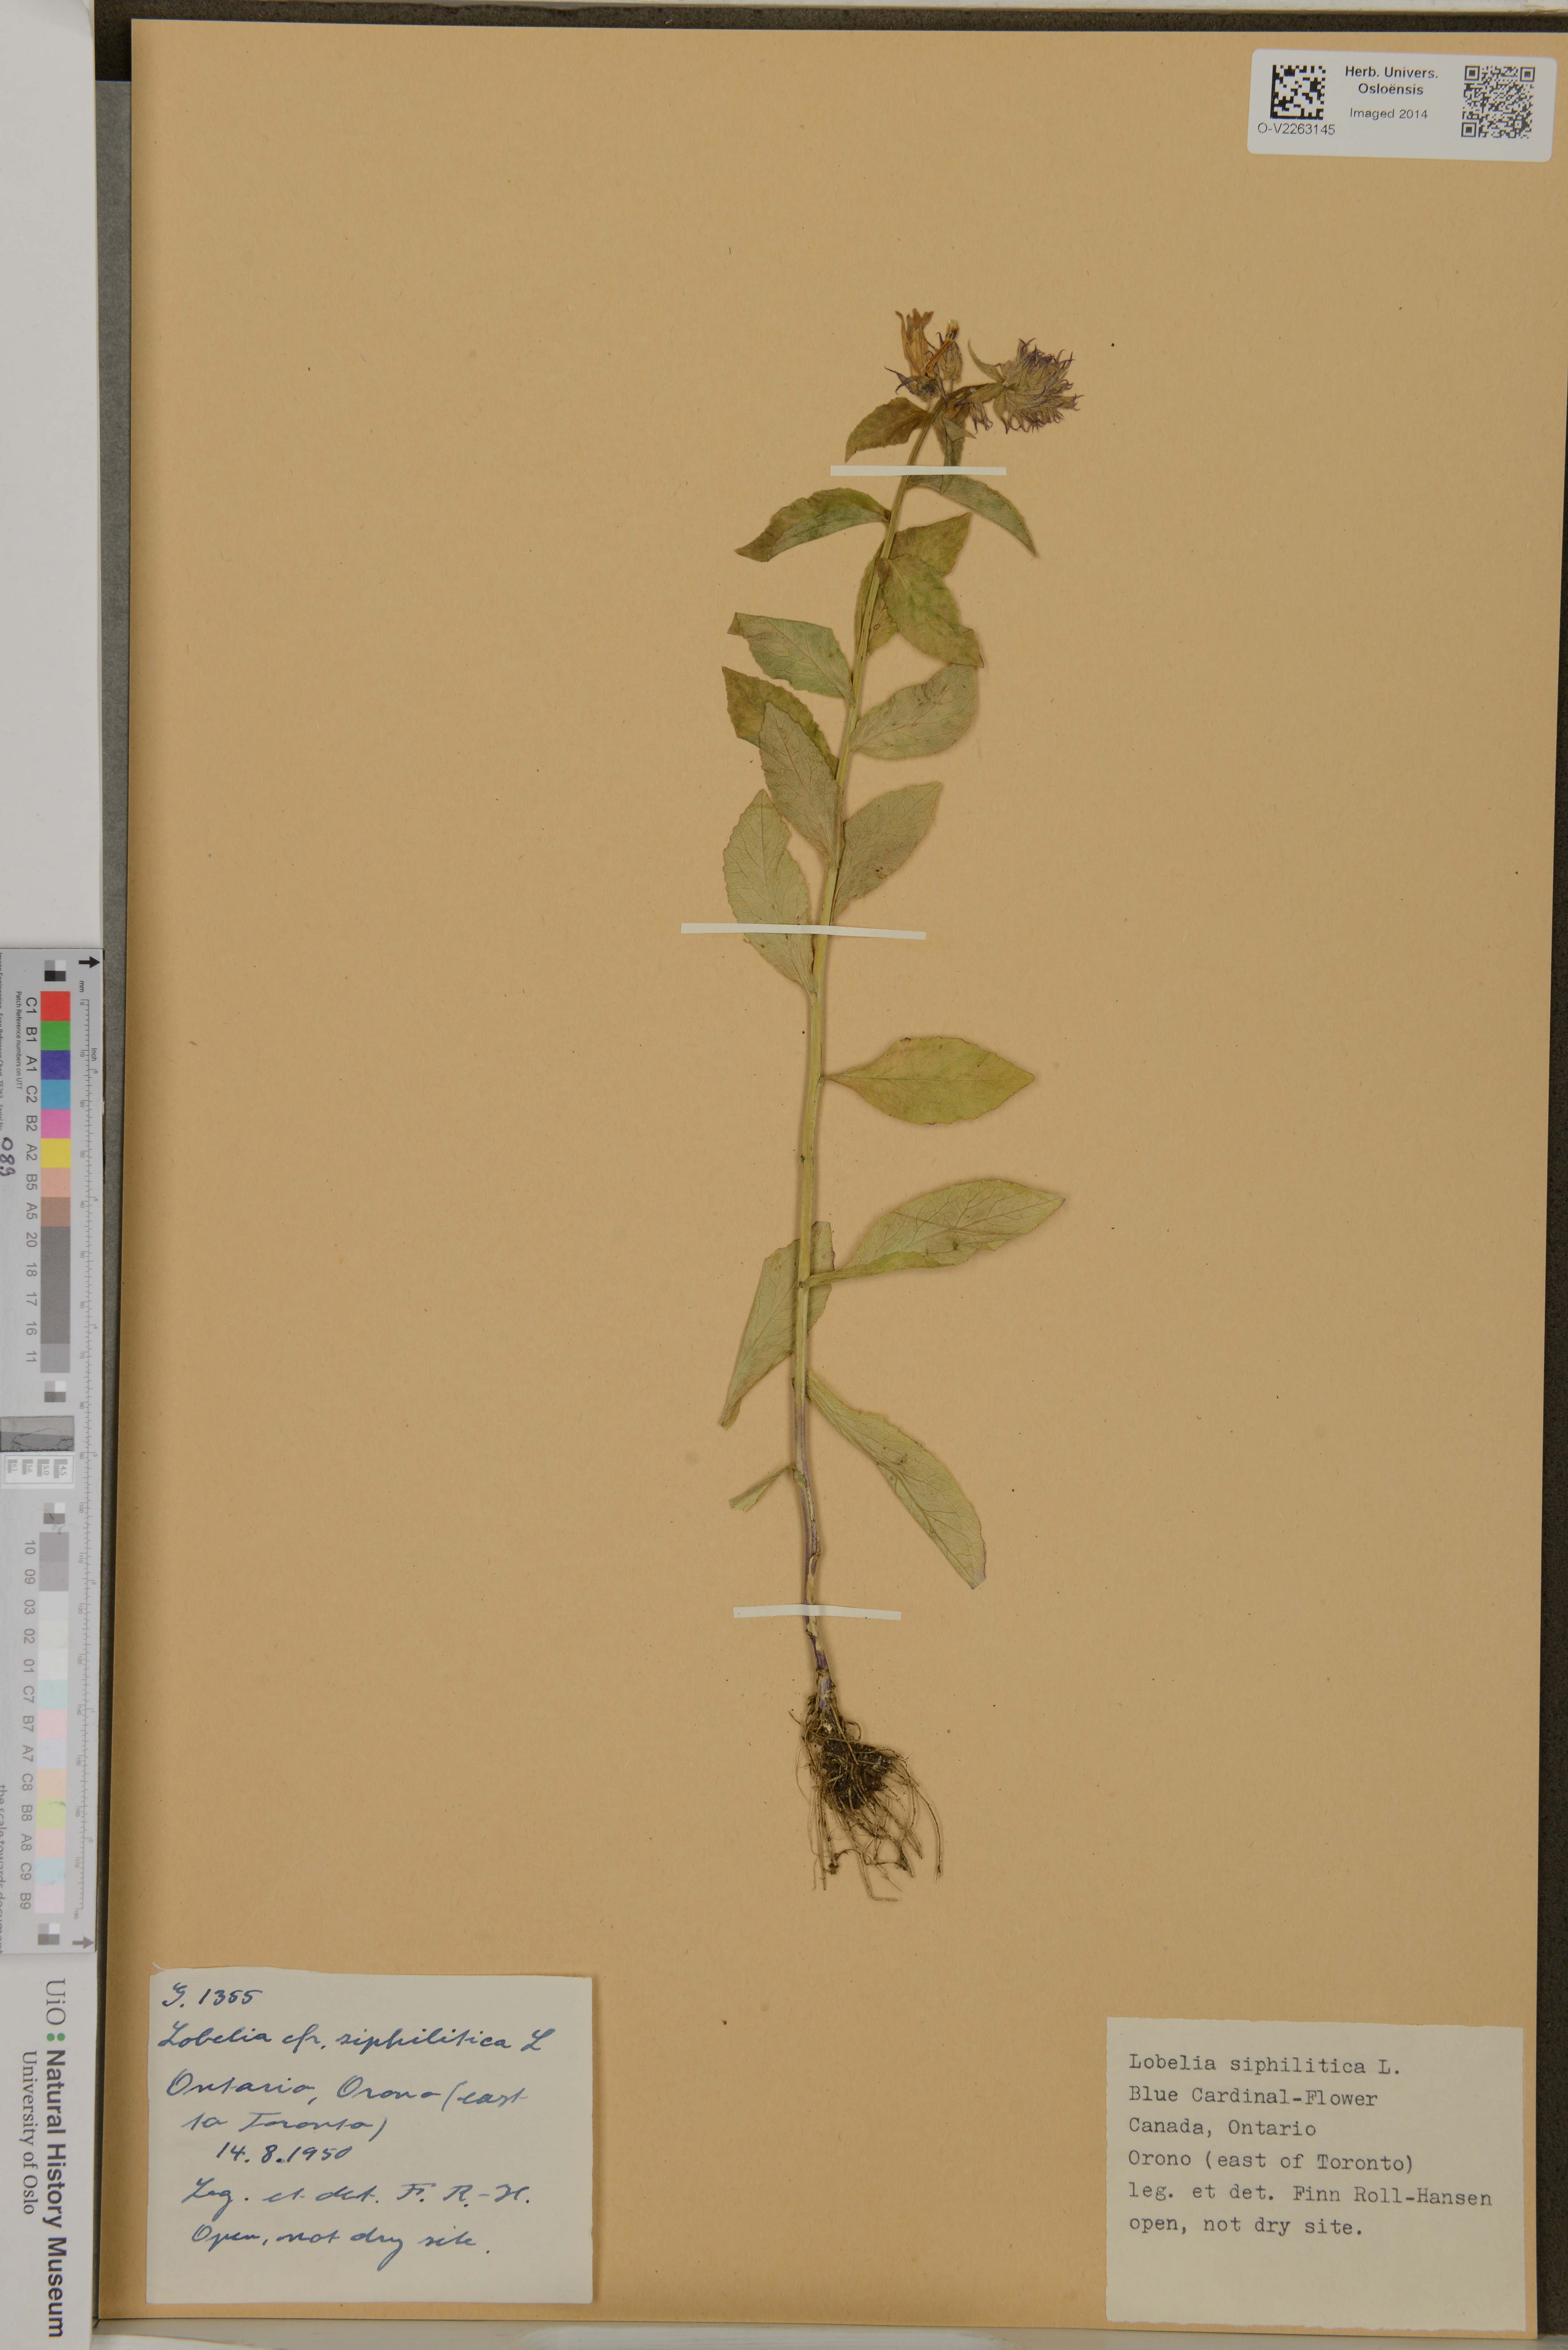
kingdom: Plantae
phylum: Tracheophyta
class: Magnoliopsida
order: Asterales
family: Campanulaceae
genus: Lobelia
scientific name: Lobelia siphilitica
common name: Great lobelia
